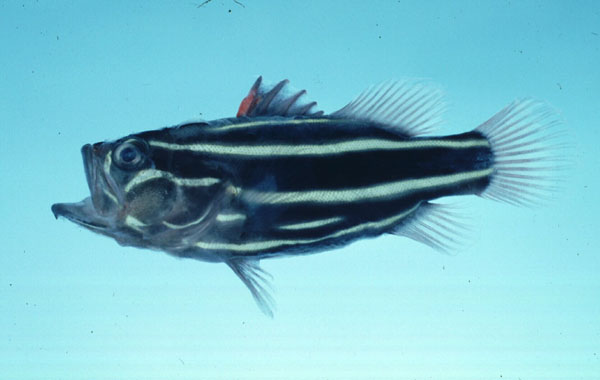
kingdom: Animalia
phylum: Chordata
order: Perciformes
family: Serranidae
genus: Grammistes
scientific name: Grammistes sexlineatus
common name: Sixline soapfish
